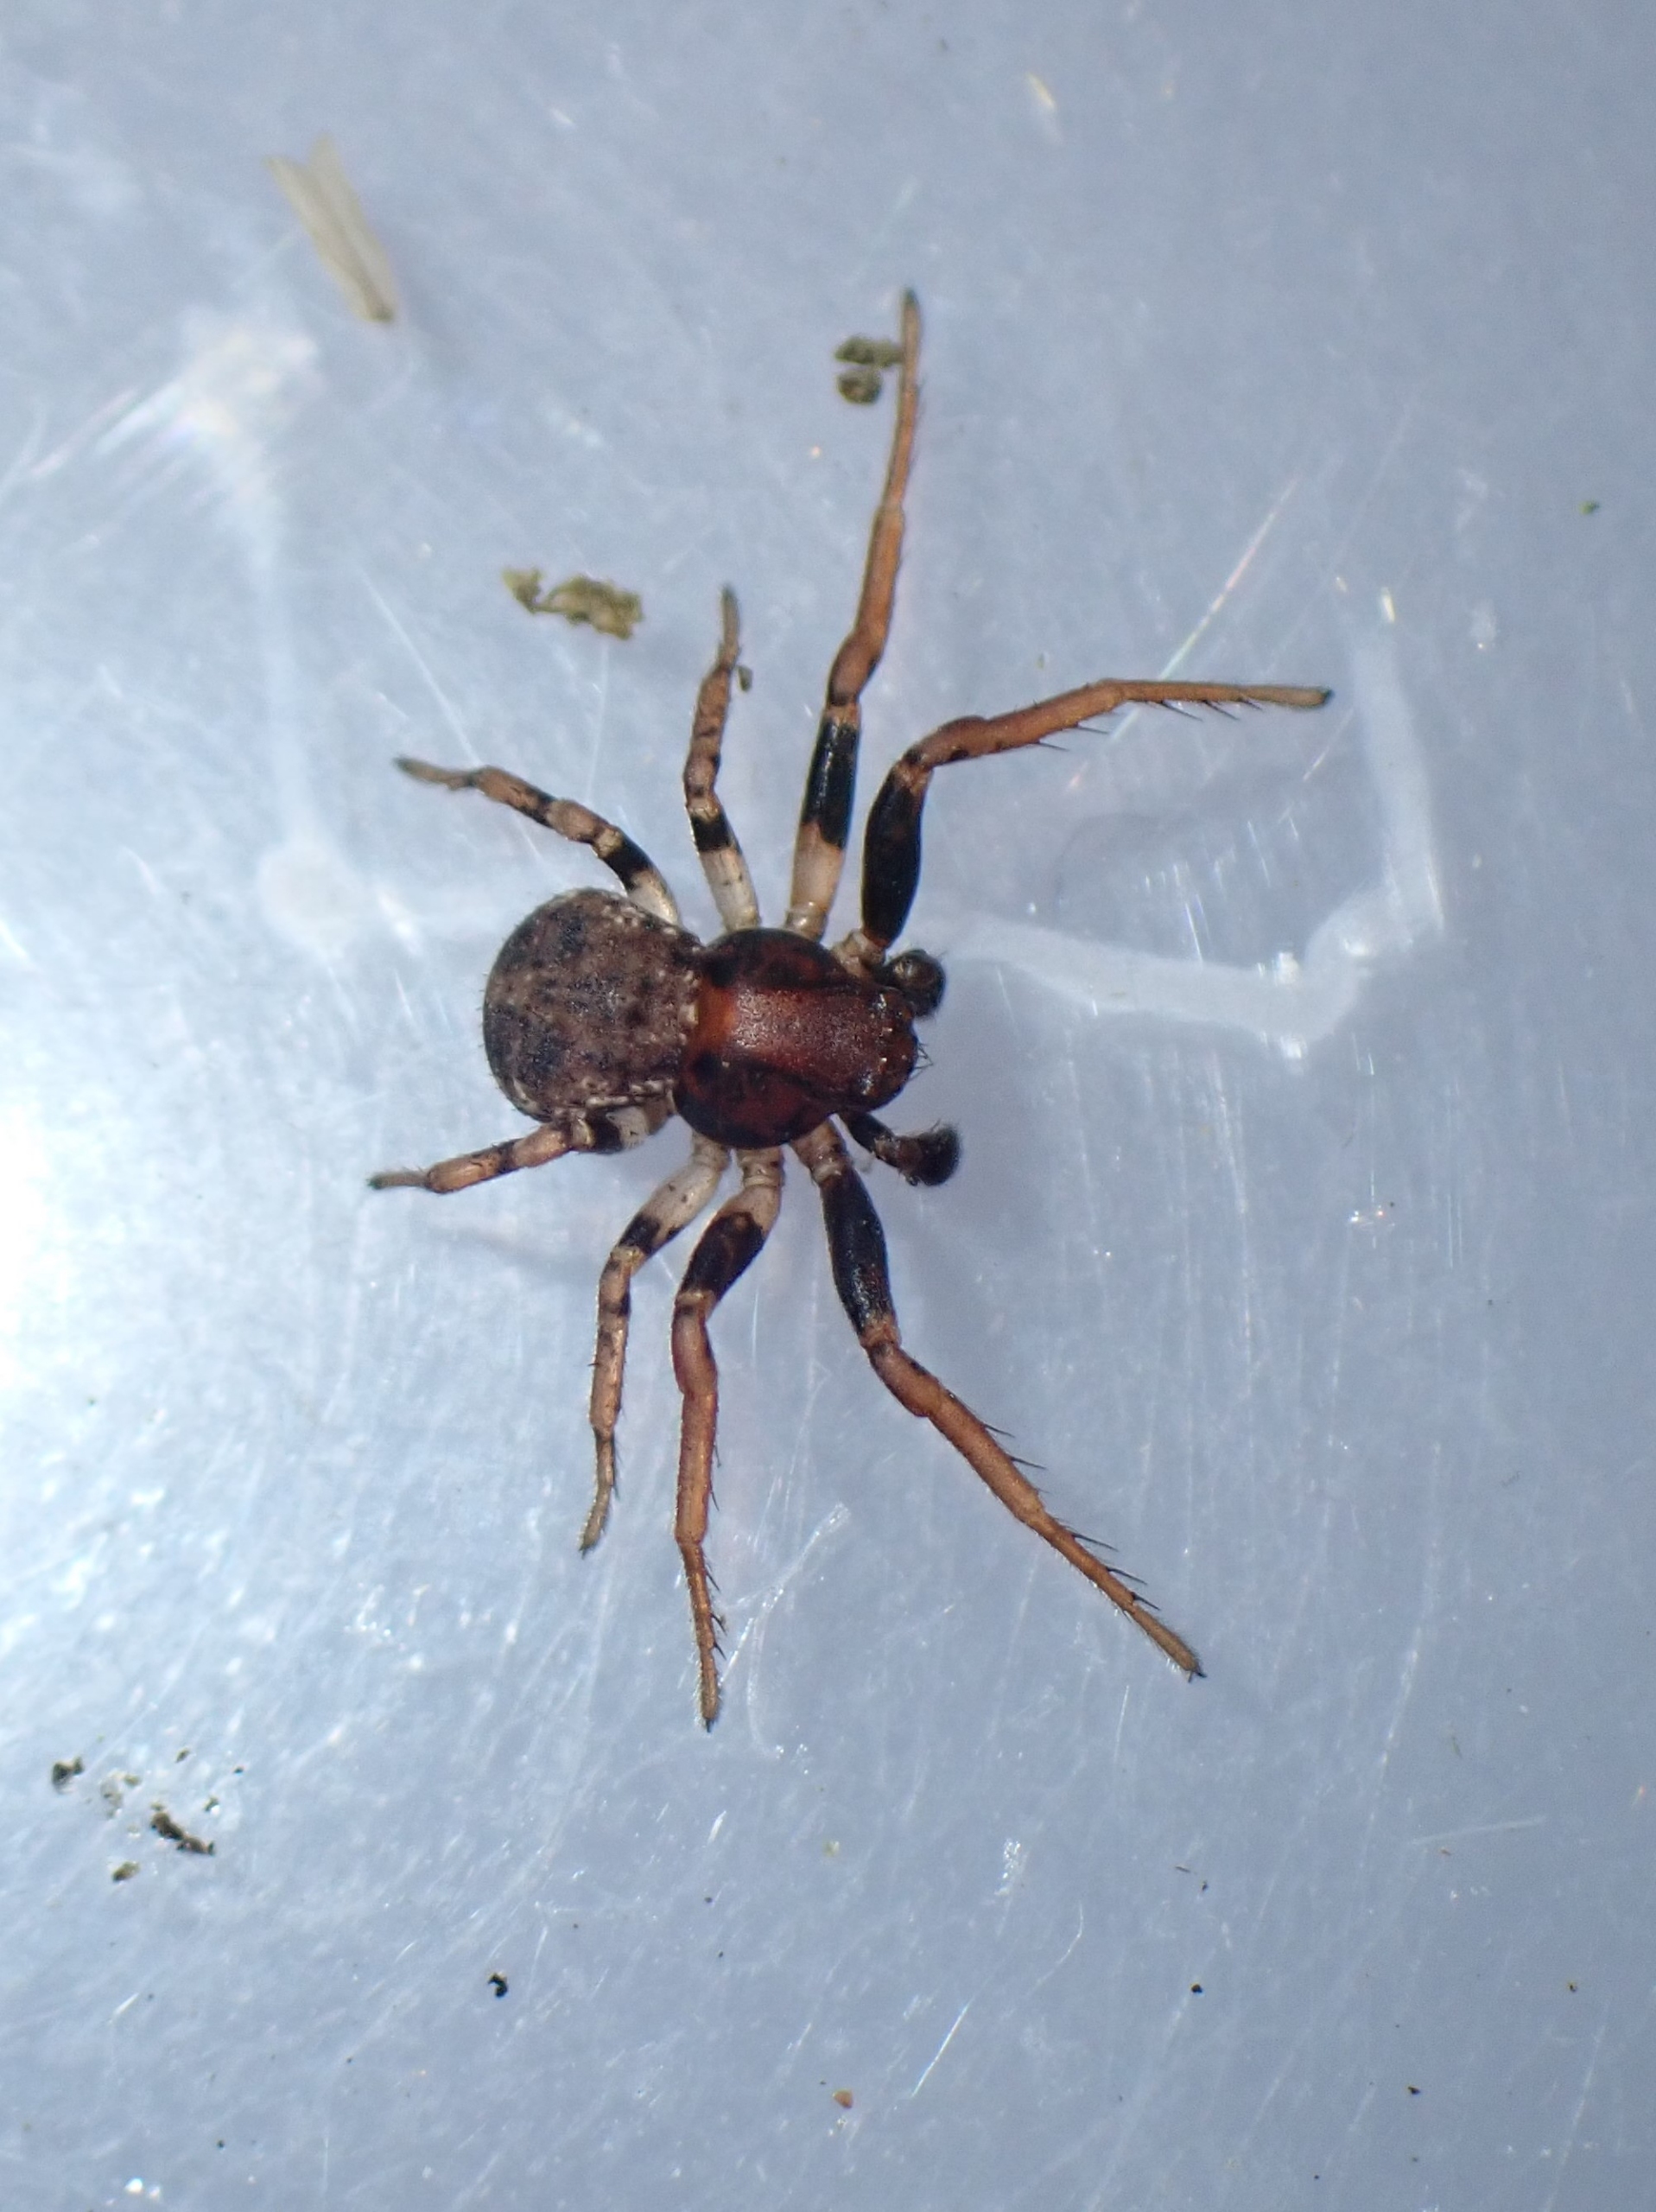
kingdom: Animalia
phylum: Arthropoda
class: Arachnida
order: Araneae
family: Thomisidae
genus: Ozyptila
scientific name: Ozyptila praticola
